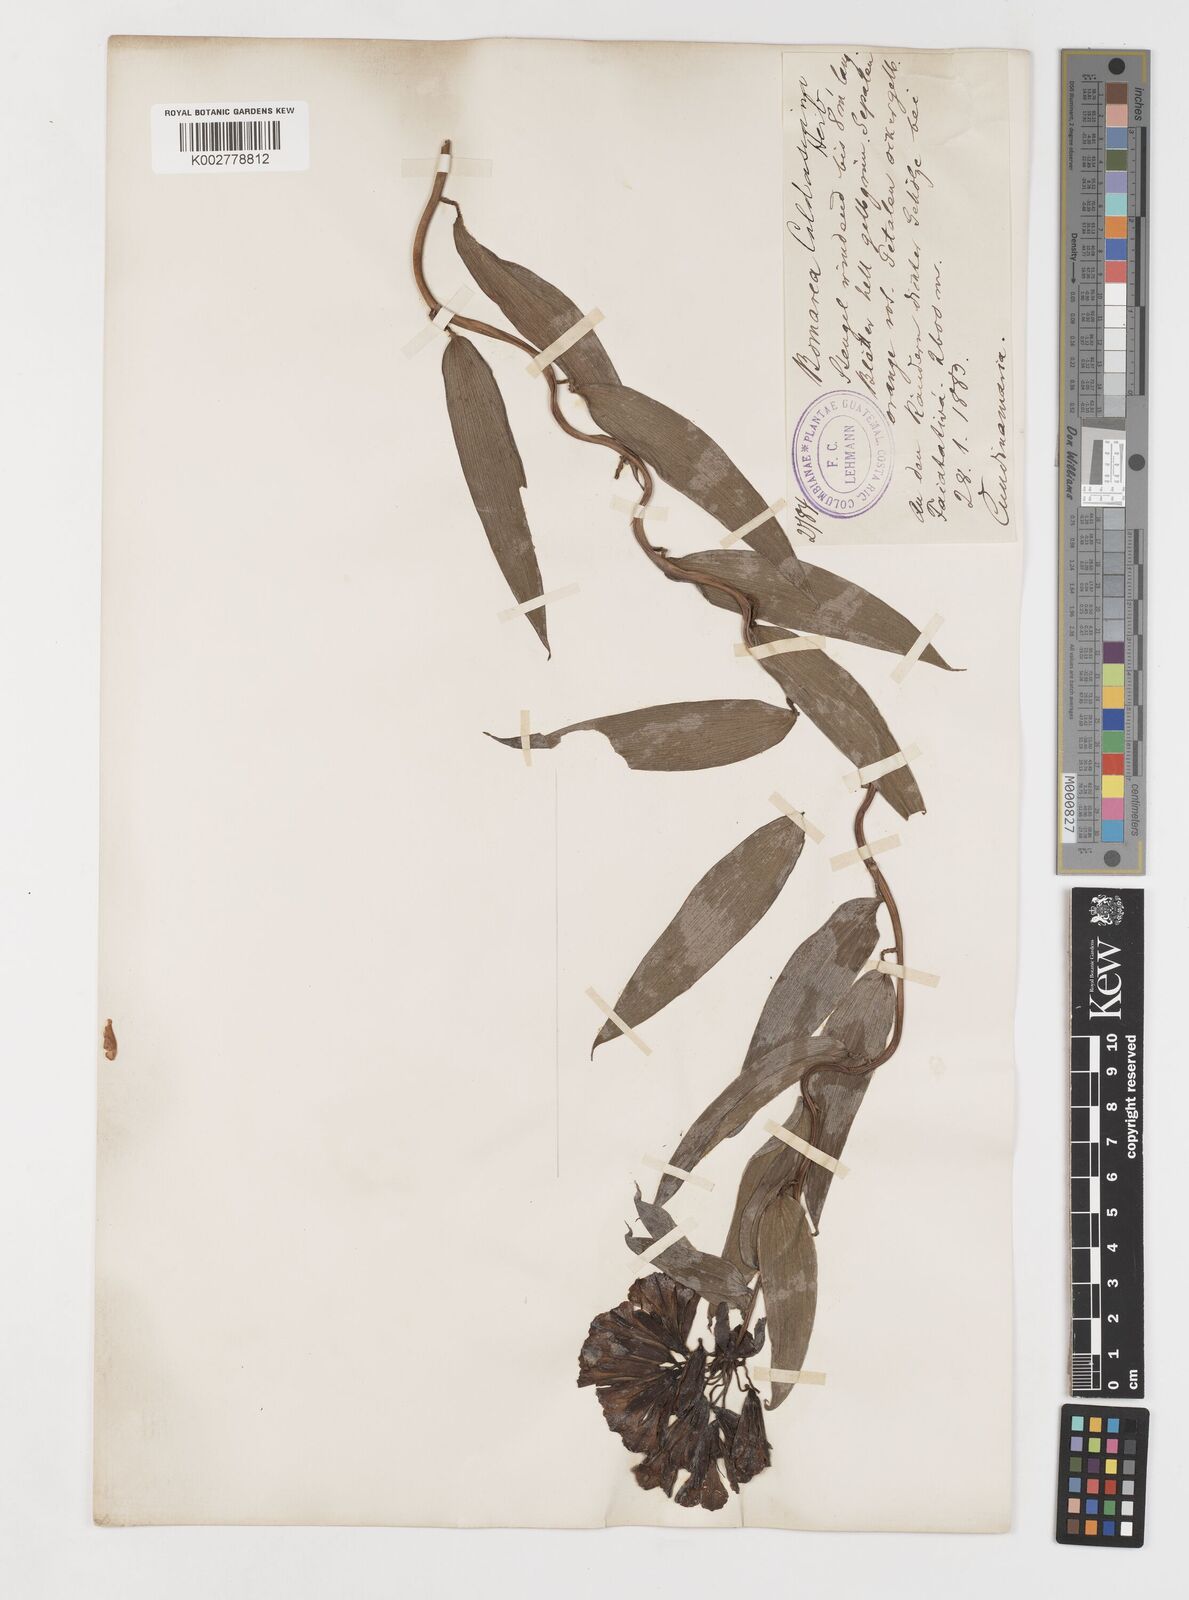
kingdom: Plantae
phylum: Tracheophyta
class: Liliopsida
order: Liliales
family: Alstroemeriaceae
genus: Bomarea
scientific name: Bomarea hirsuta
